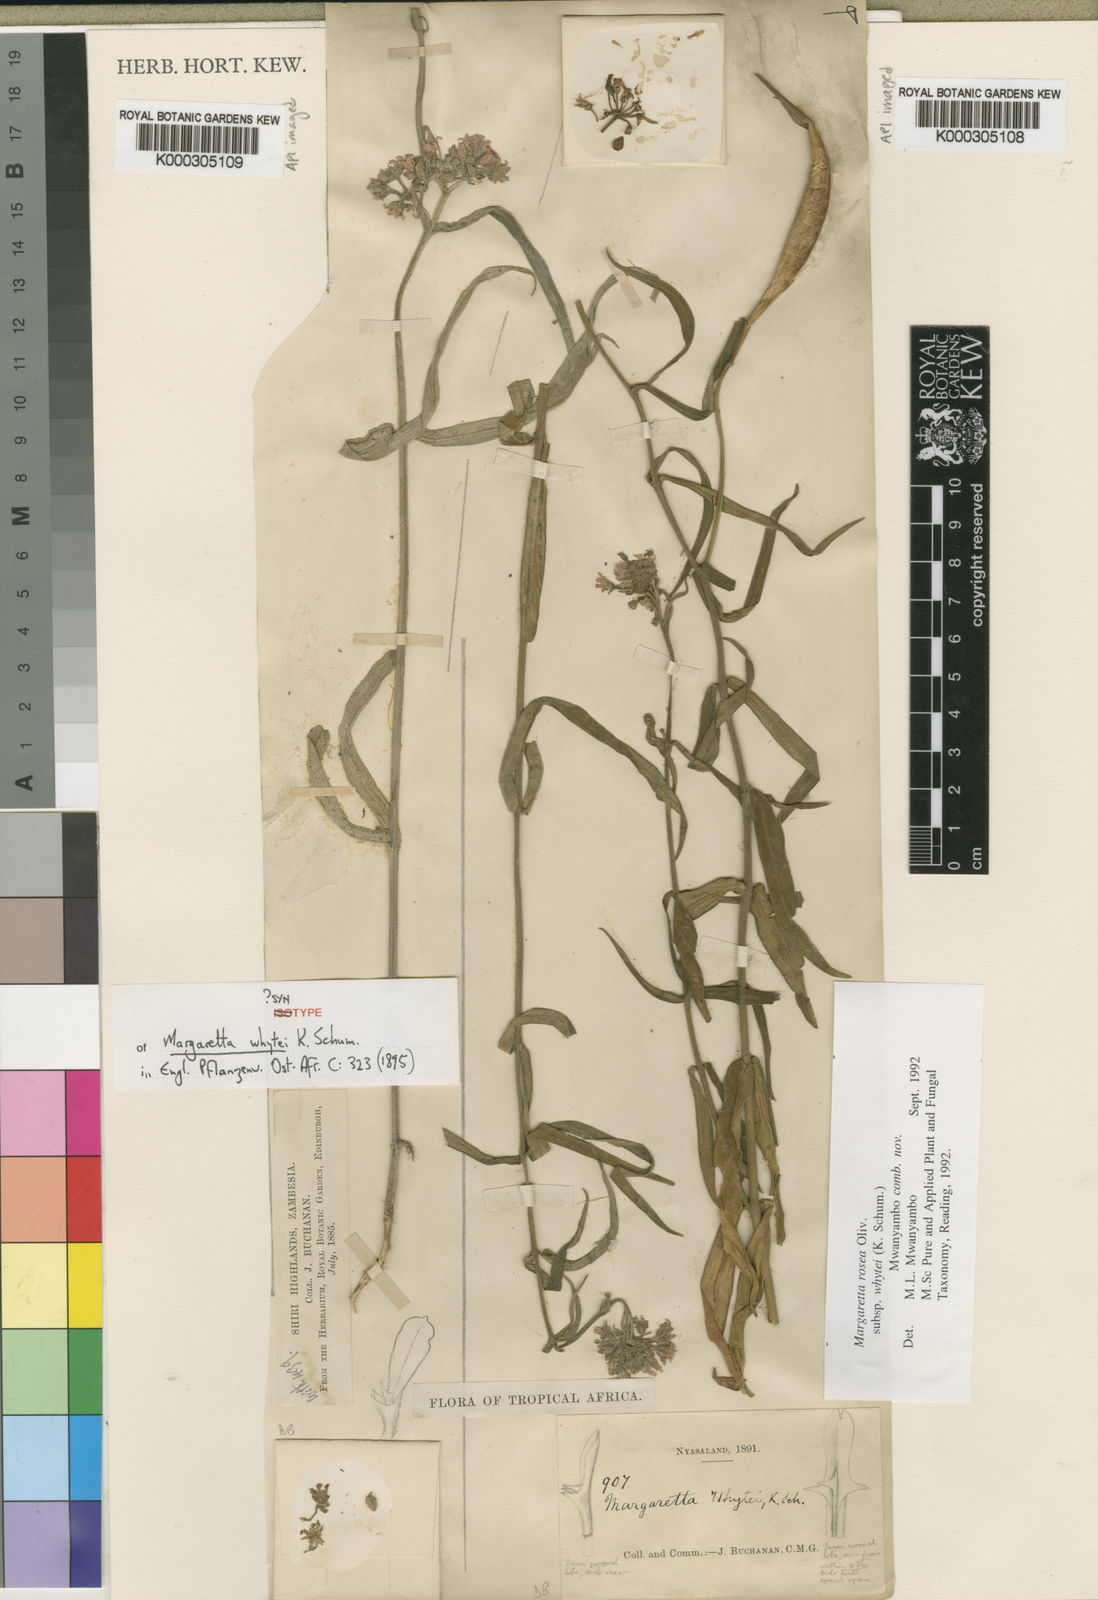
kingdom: Plantae
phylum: Tracheophyta
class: Magnoliopsida
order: Gentianales
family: Apocynaceae
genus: Margaretta
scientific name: Margaretta rosea
